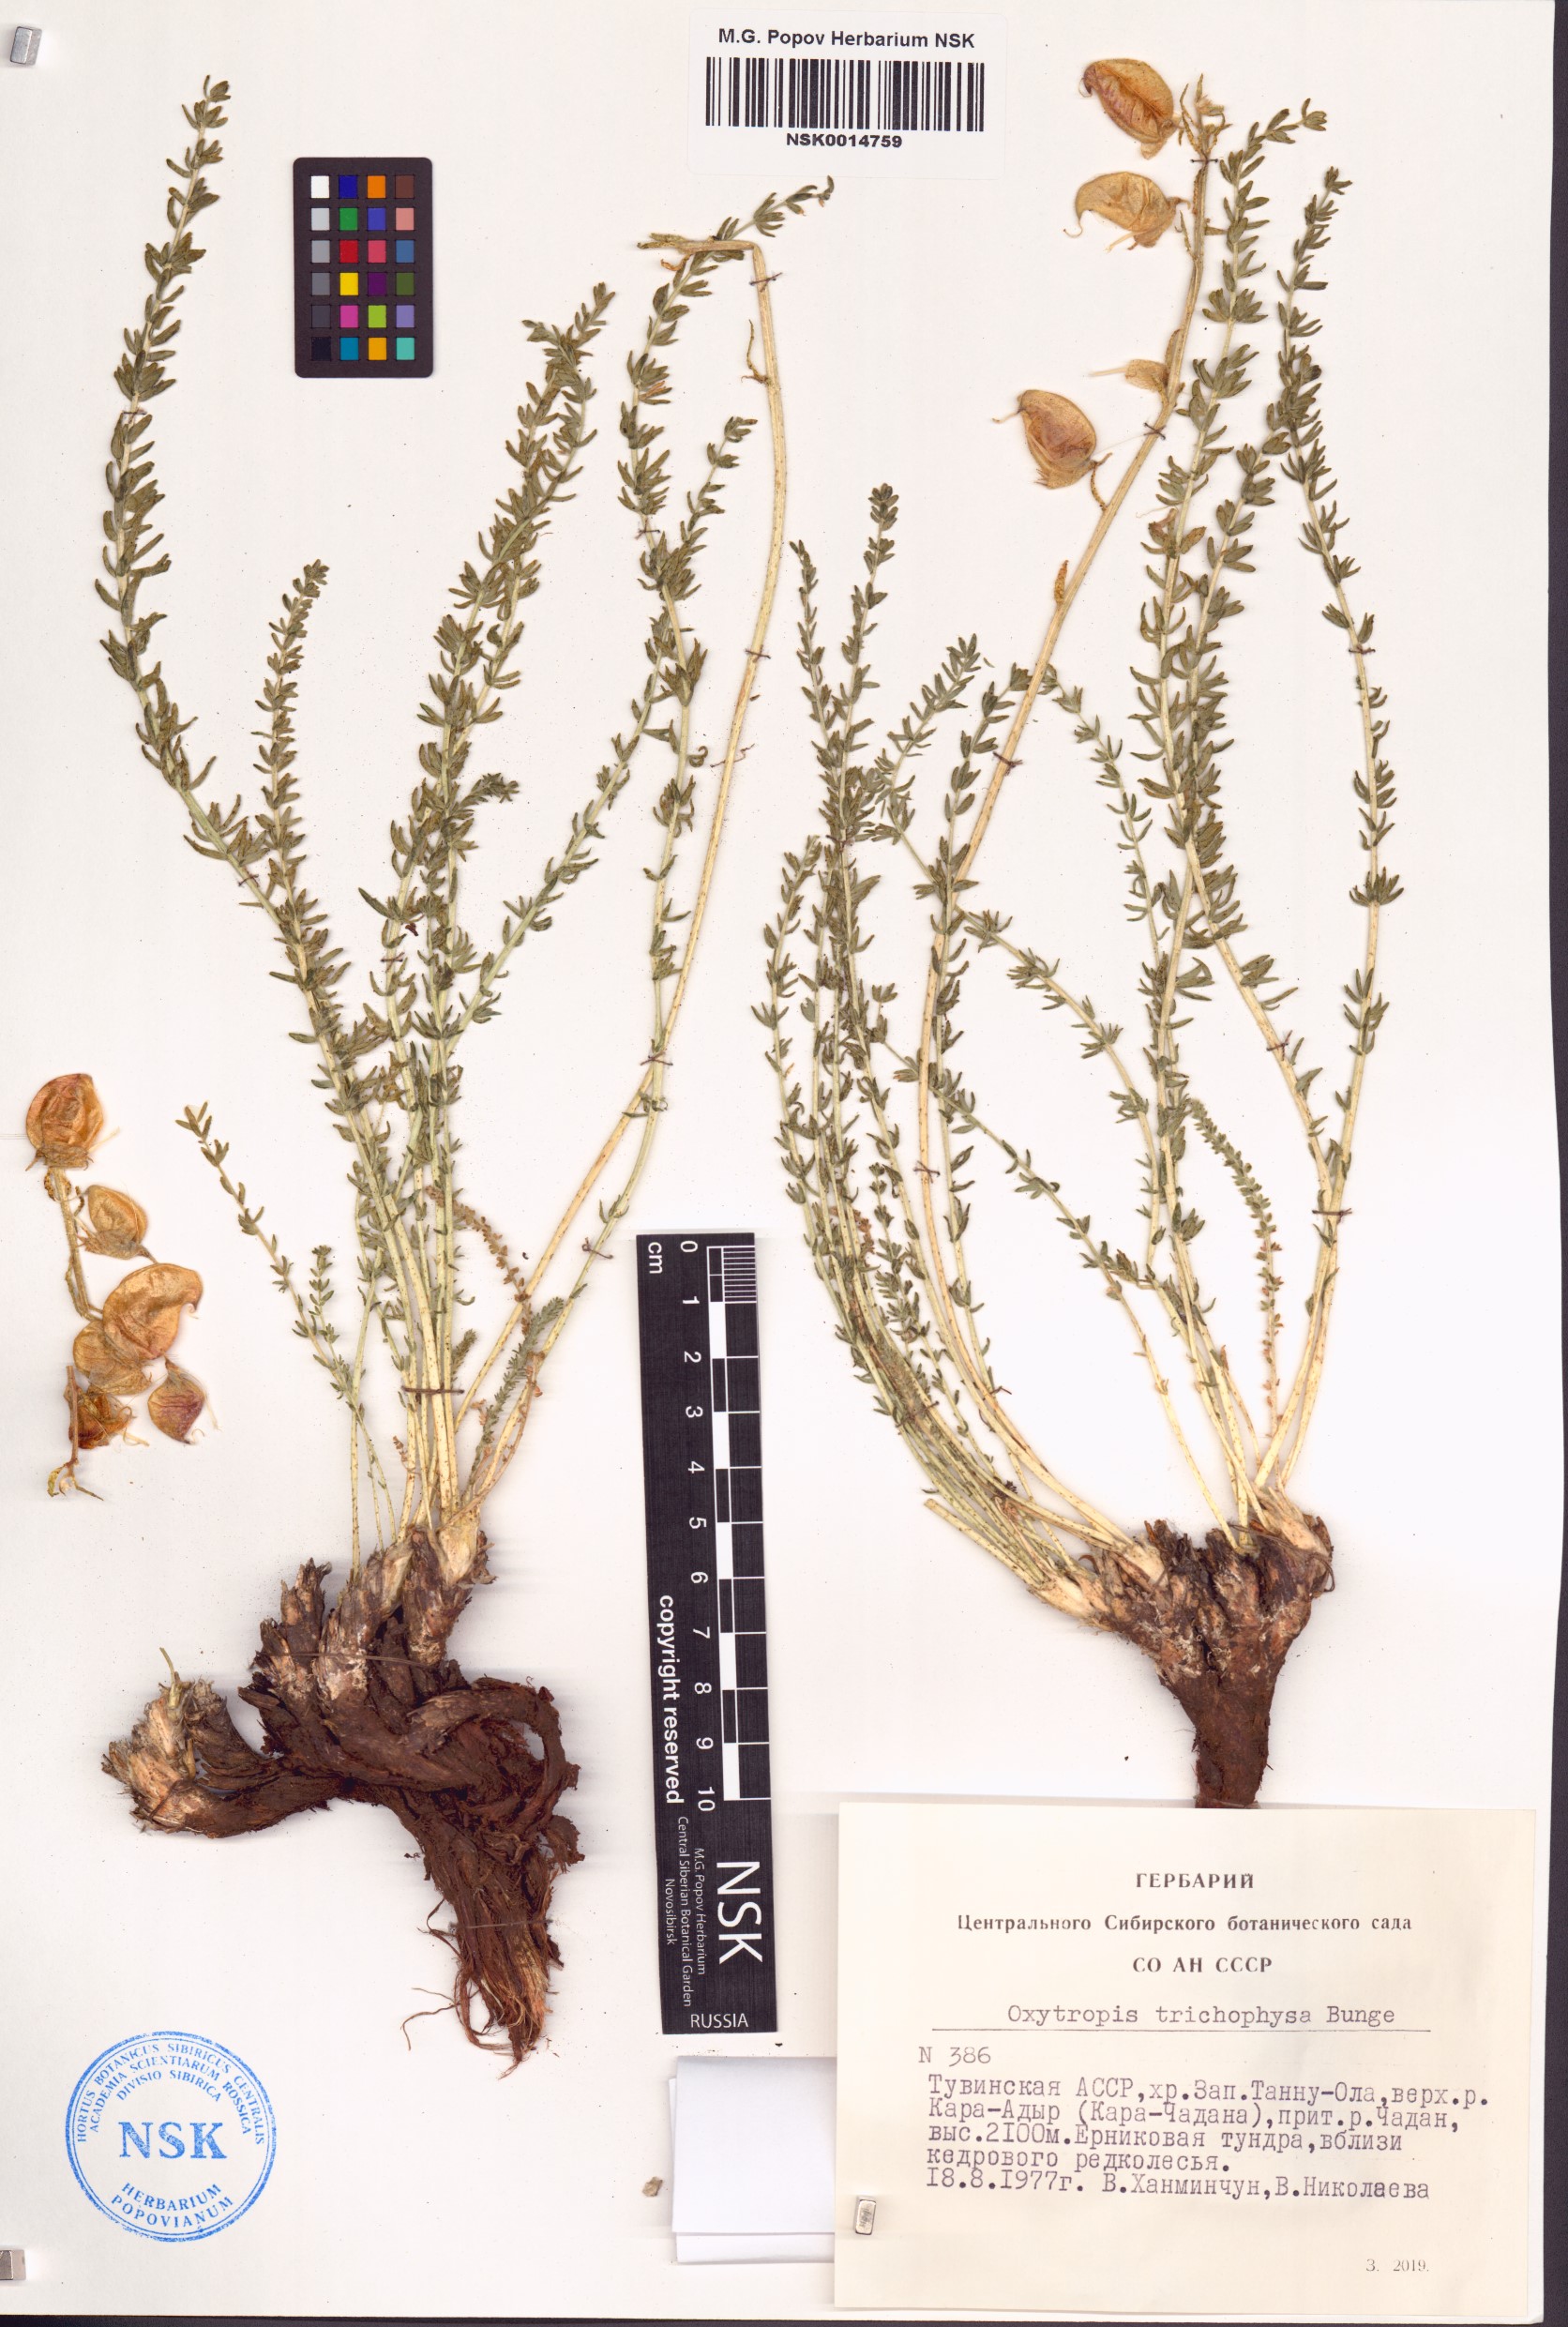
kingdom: Plantae
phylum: Tracheophyta
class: Magnoliopsida
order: Fabales
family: Fabaceae
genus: Oxytropis
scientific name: Oxytropis trichophysa
